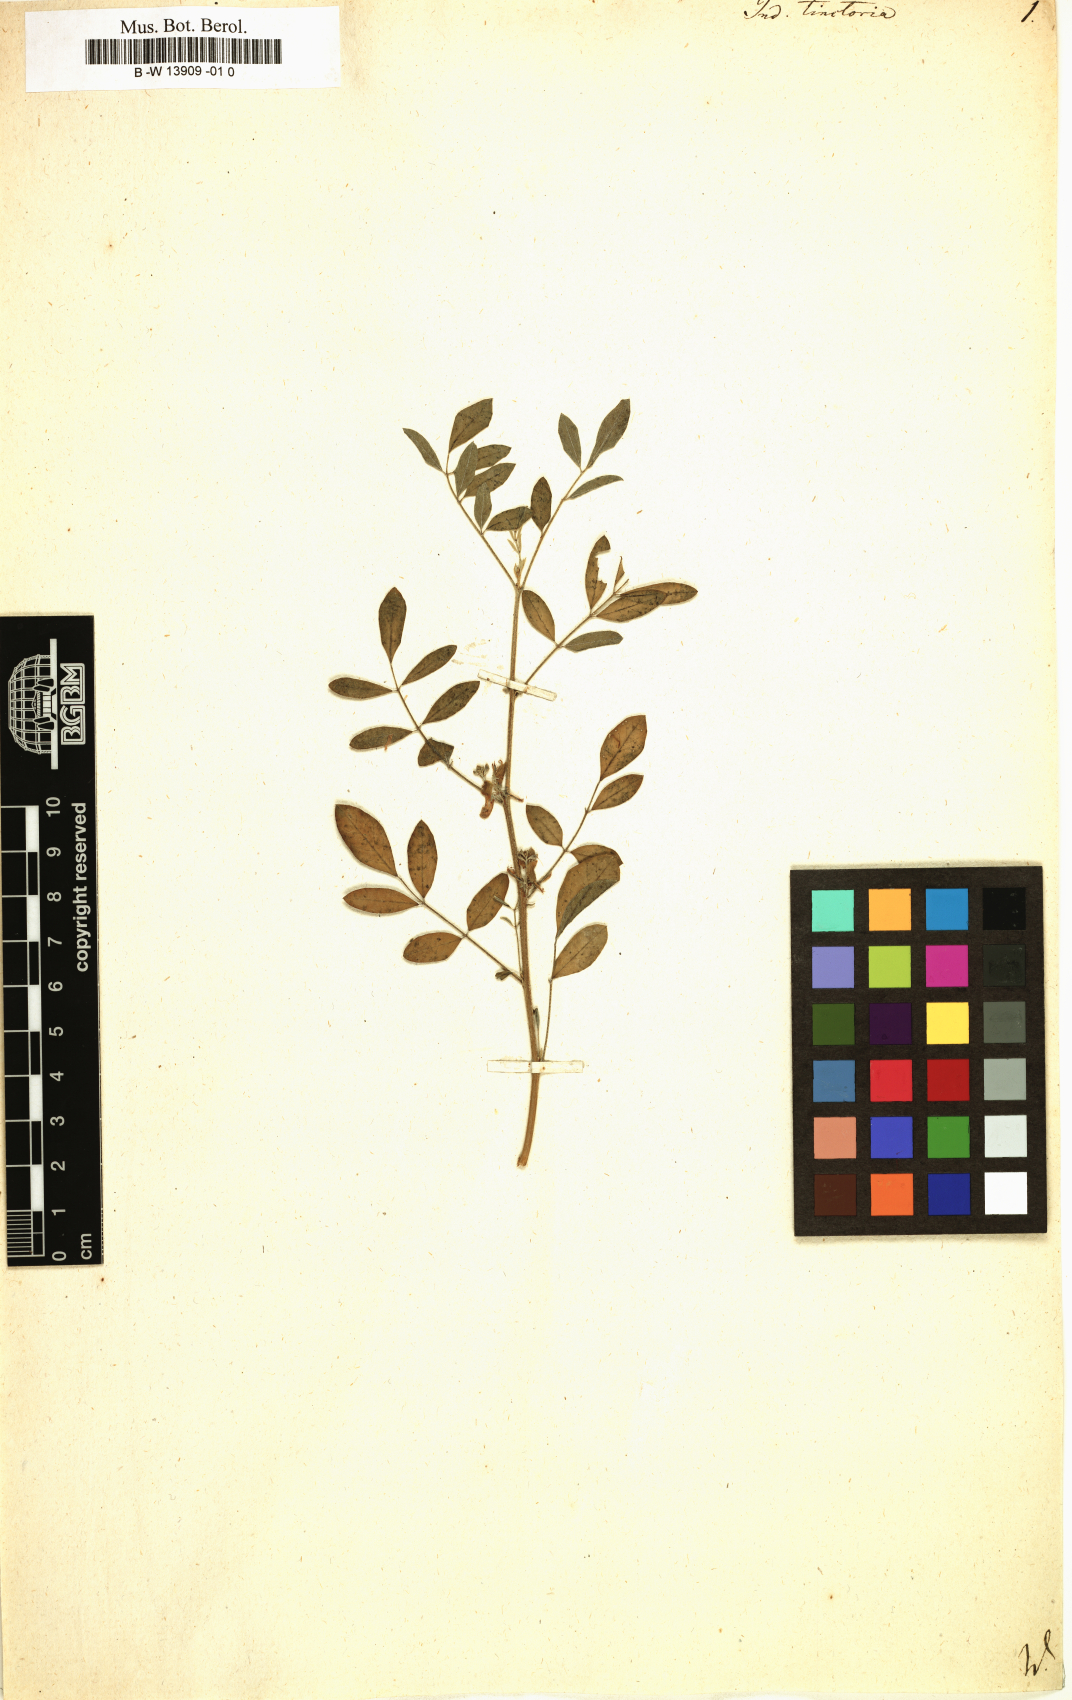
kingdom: Plantae
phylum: Tracheophyta
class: Magnoliopsida
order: Fabales
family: Fabaceae
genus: Indigofera
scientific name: Indigofera tinctoria
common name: True indigo
